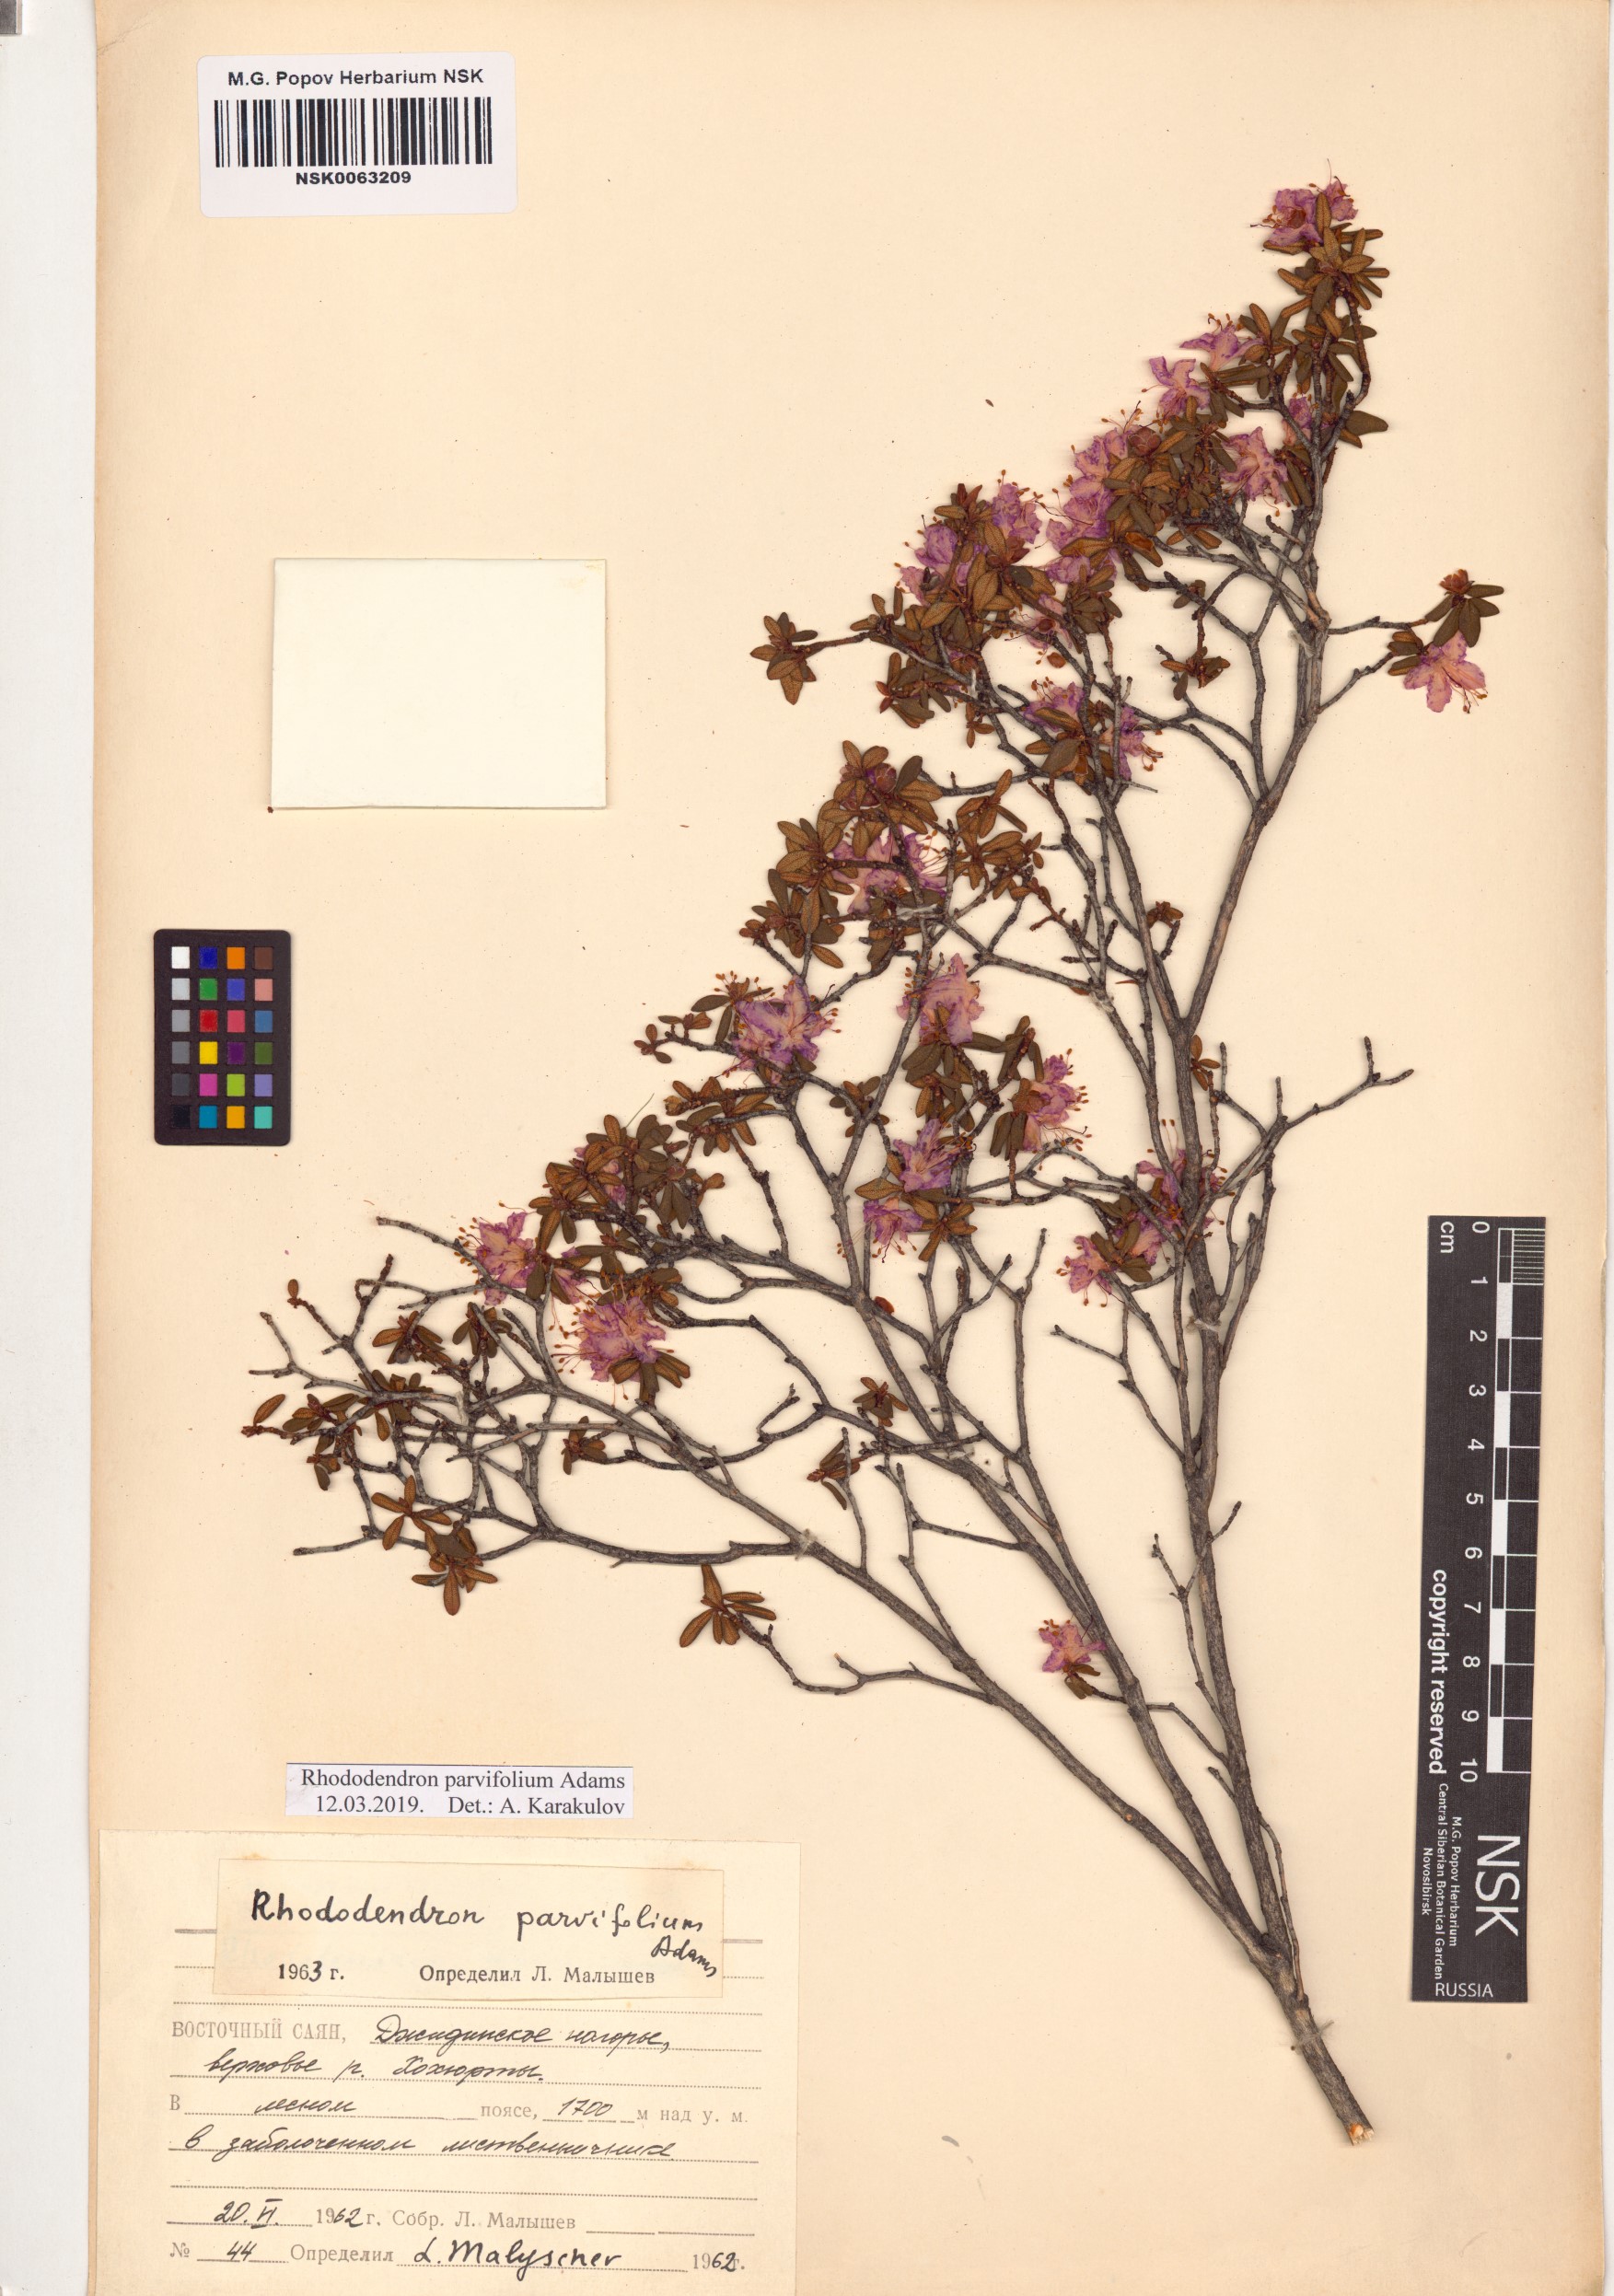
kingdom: Plantae
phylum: Tracheophyta
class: Magnoliopsida
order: Ericales
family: Ericaceae
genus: Rhododendron
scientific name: Rhododendron parvifolium
